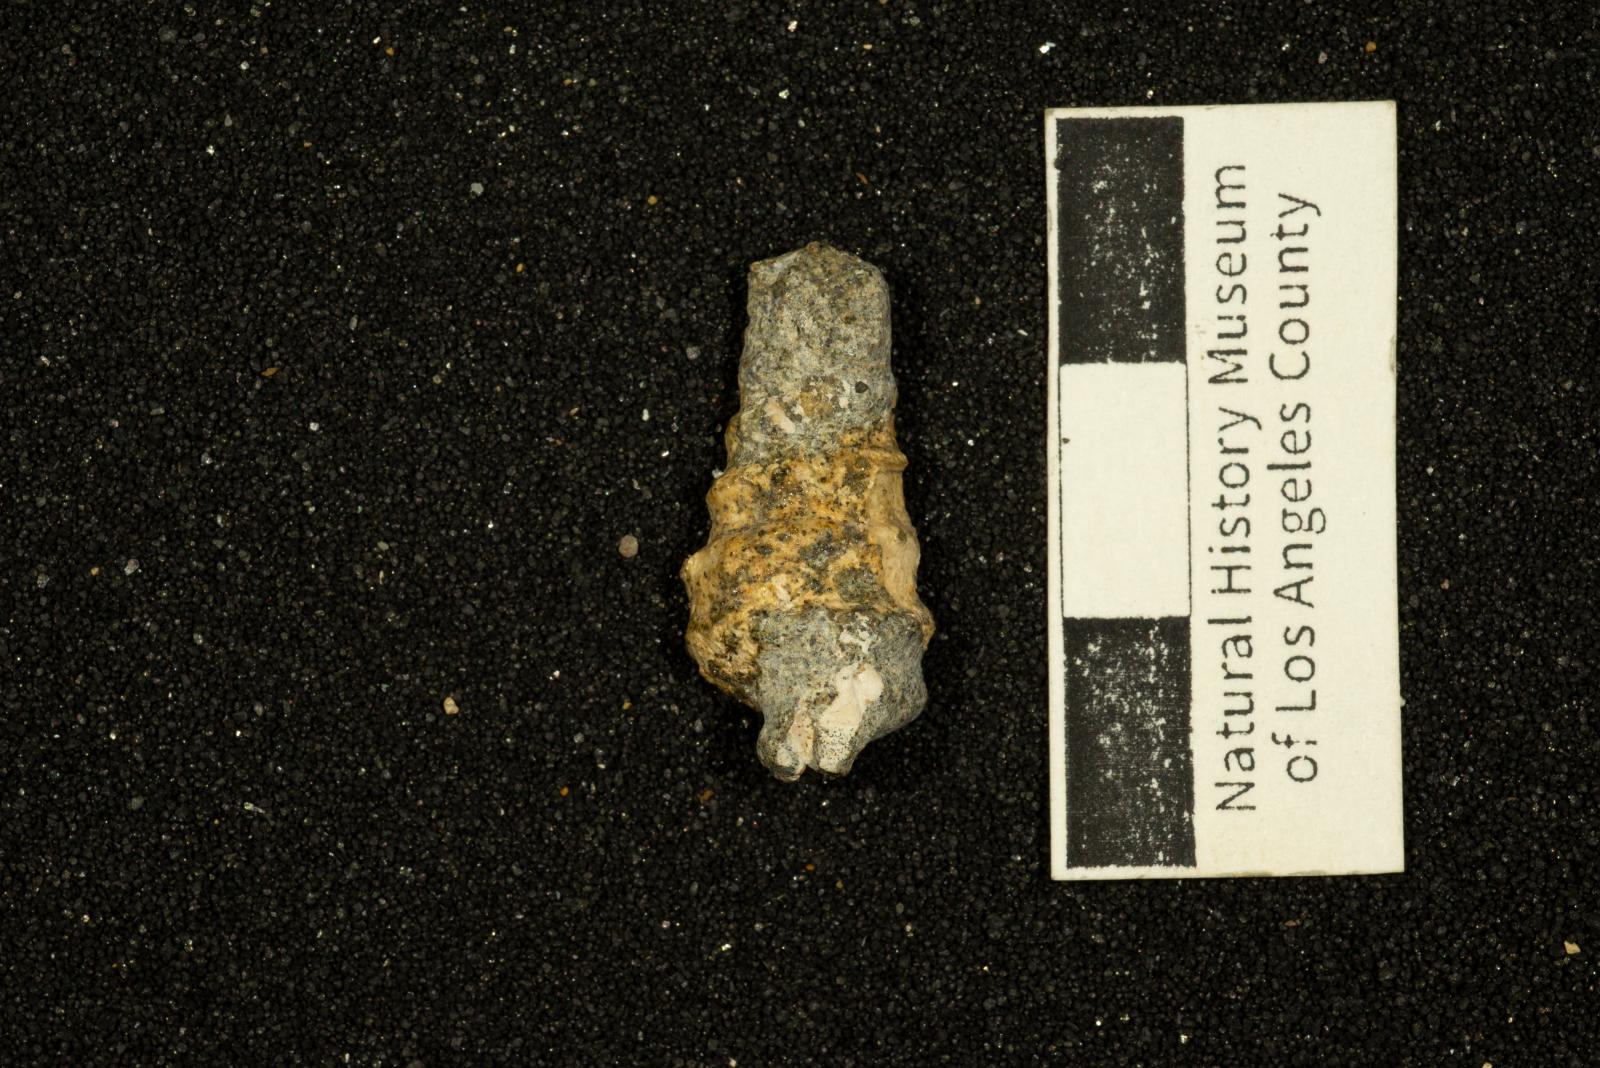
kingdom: Animalia
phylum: Mollusca
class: Gastropoda
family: Diozoptyxidae
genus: Diozoptyxis
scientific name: Diozoptyxis ursana
